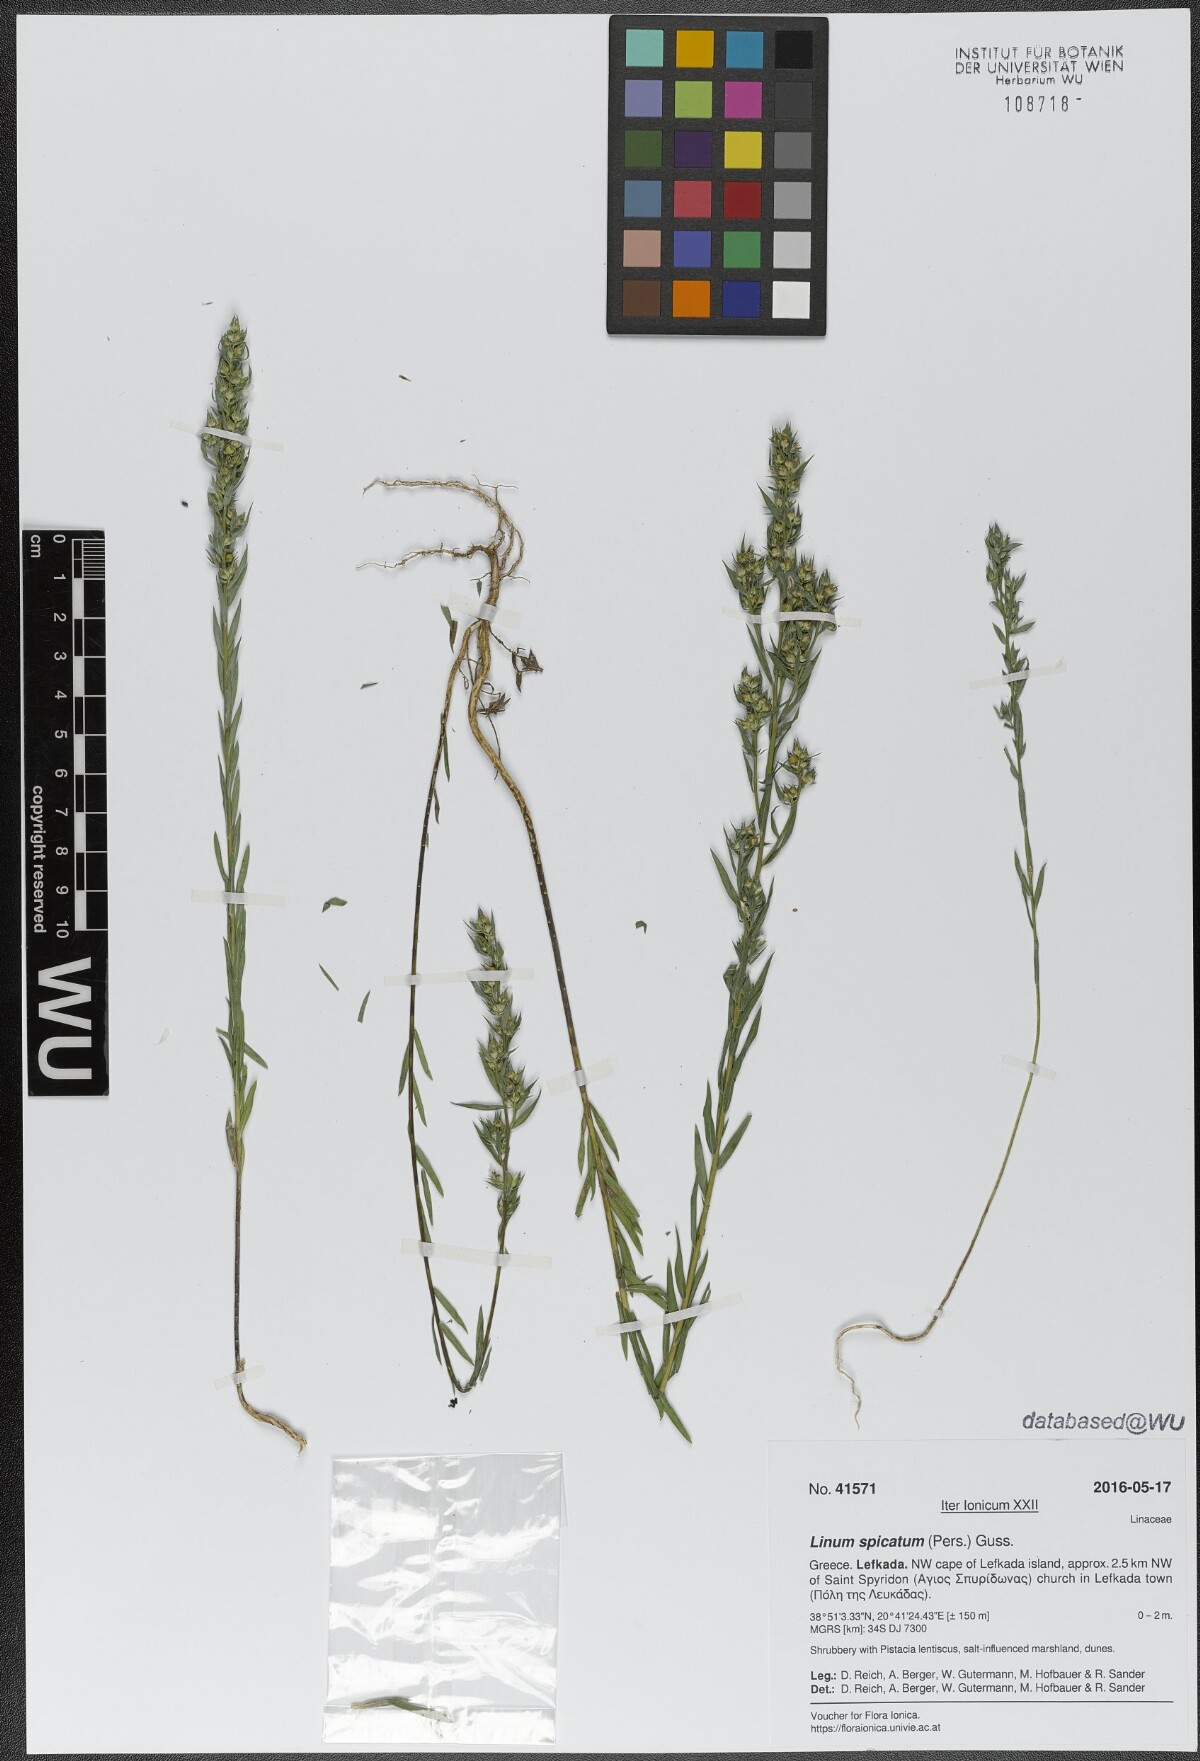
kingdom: Plantae
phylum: Tracheophyta
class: Magnoliopsida
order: Malpighiales
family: Linaceae
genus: Linum
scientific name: Linum strictum
